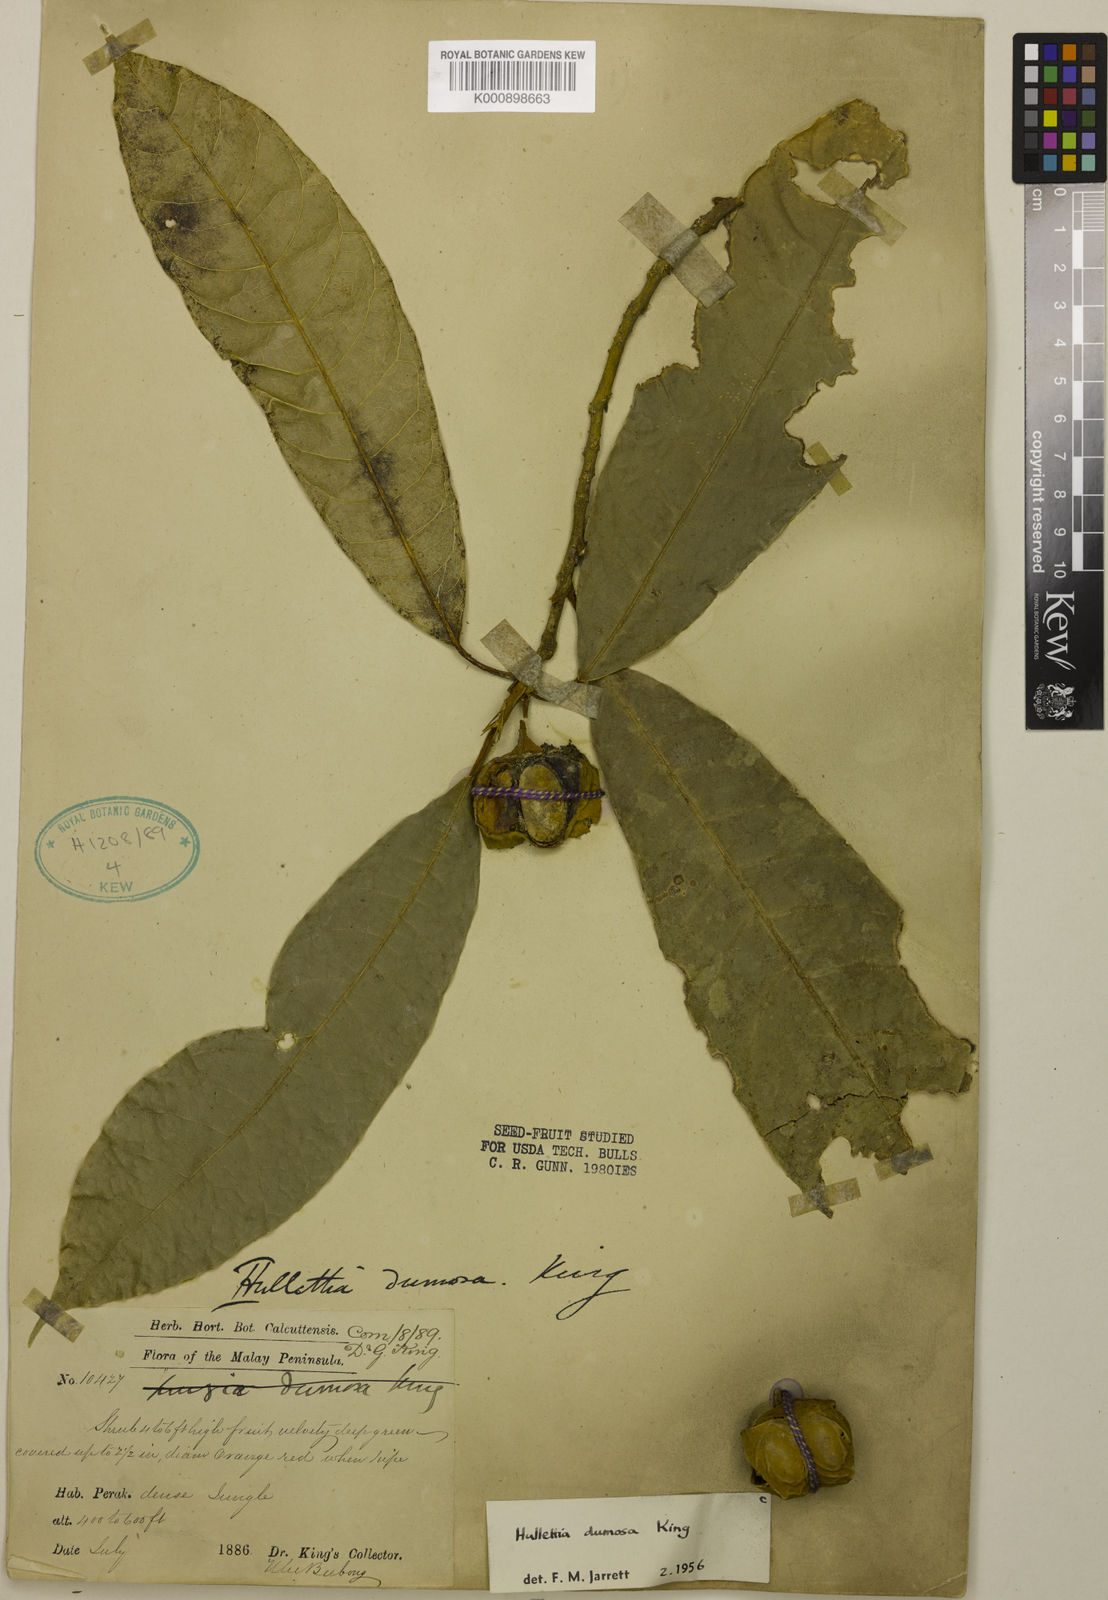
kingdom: Plantae
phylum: Tracheophyta
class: Magnoliopsida
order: Rosales
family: Moraceae
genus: Hullettia
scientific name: Hullettia
